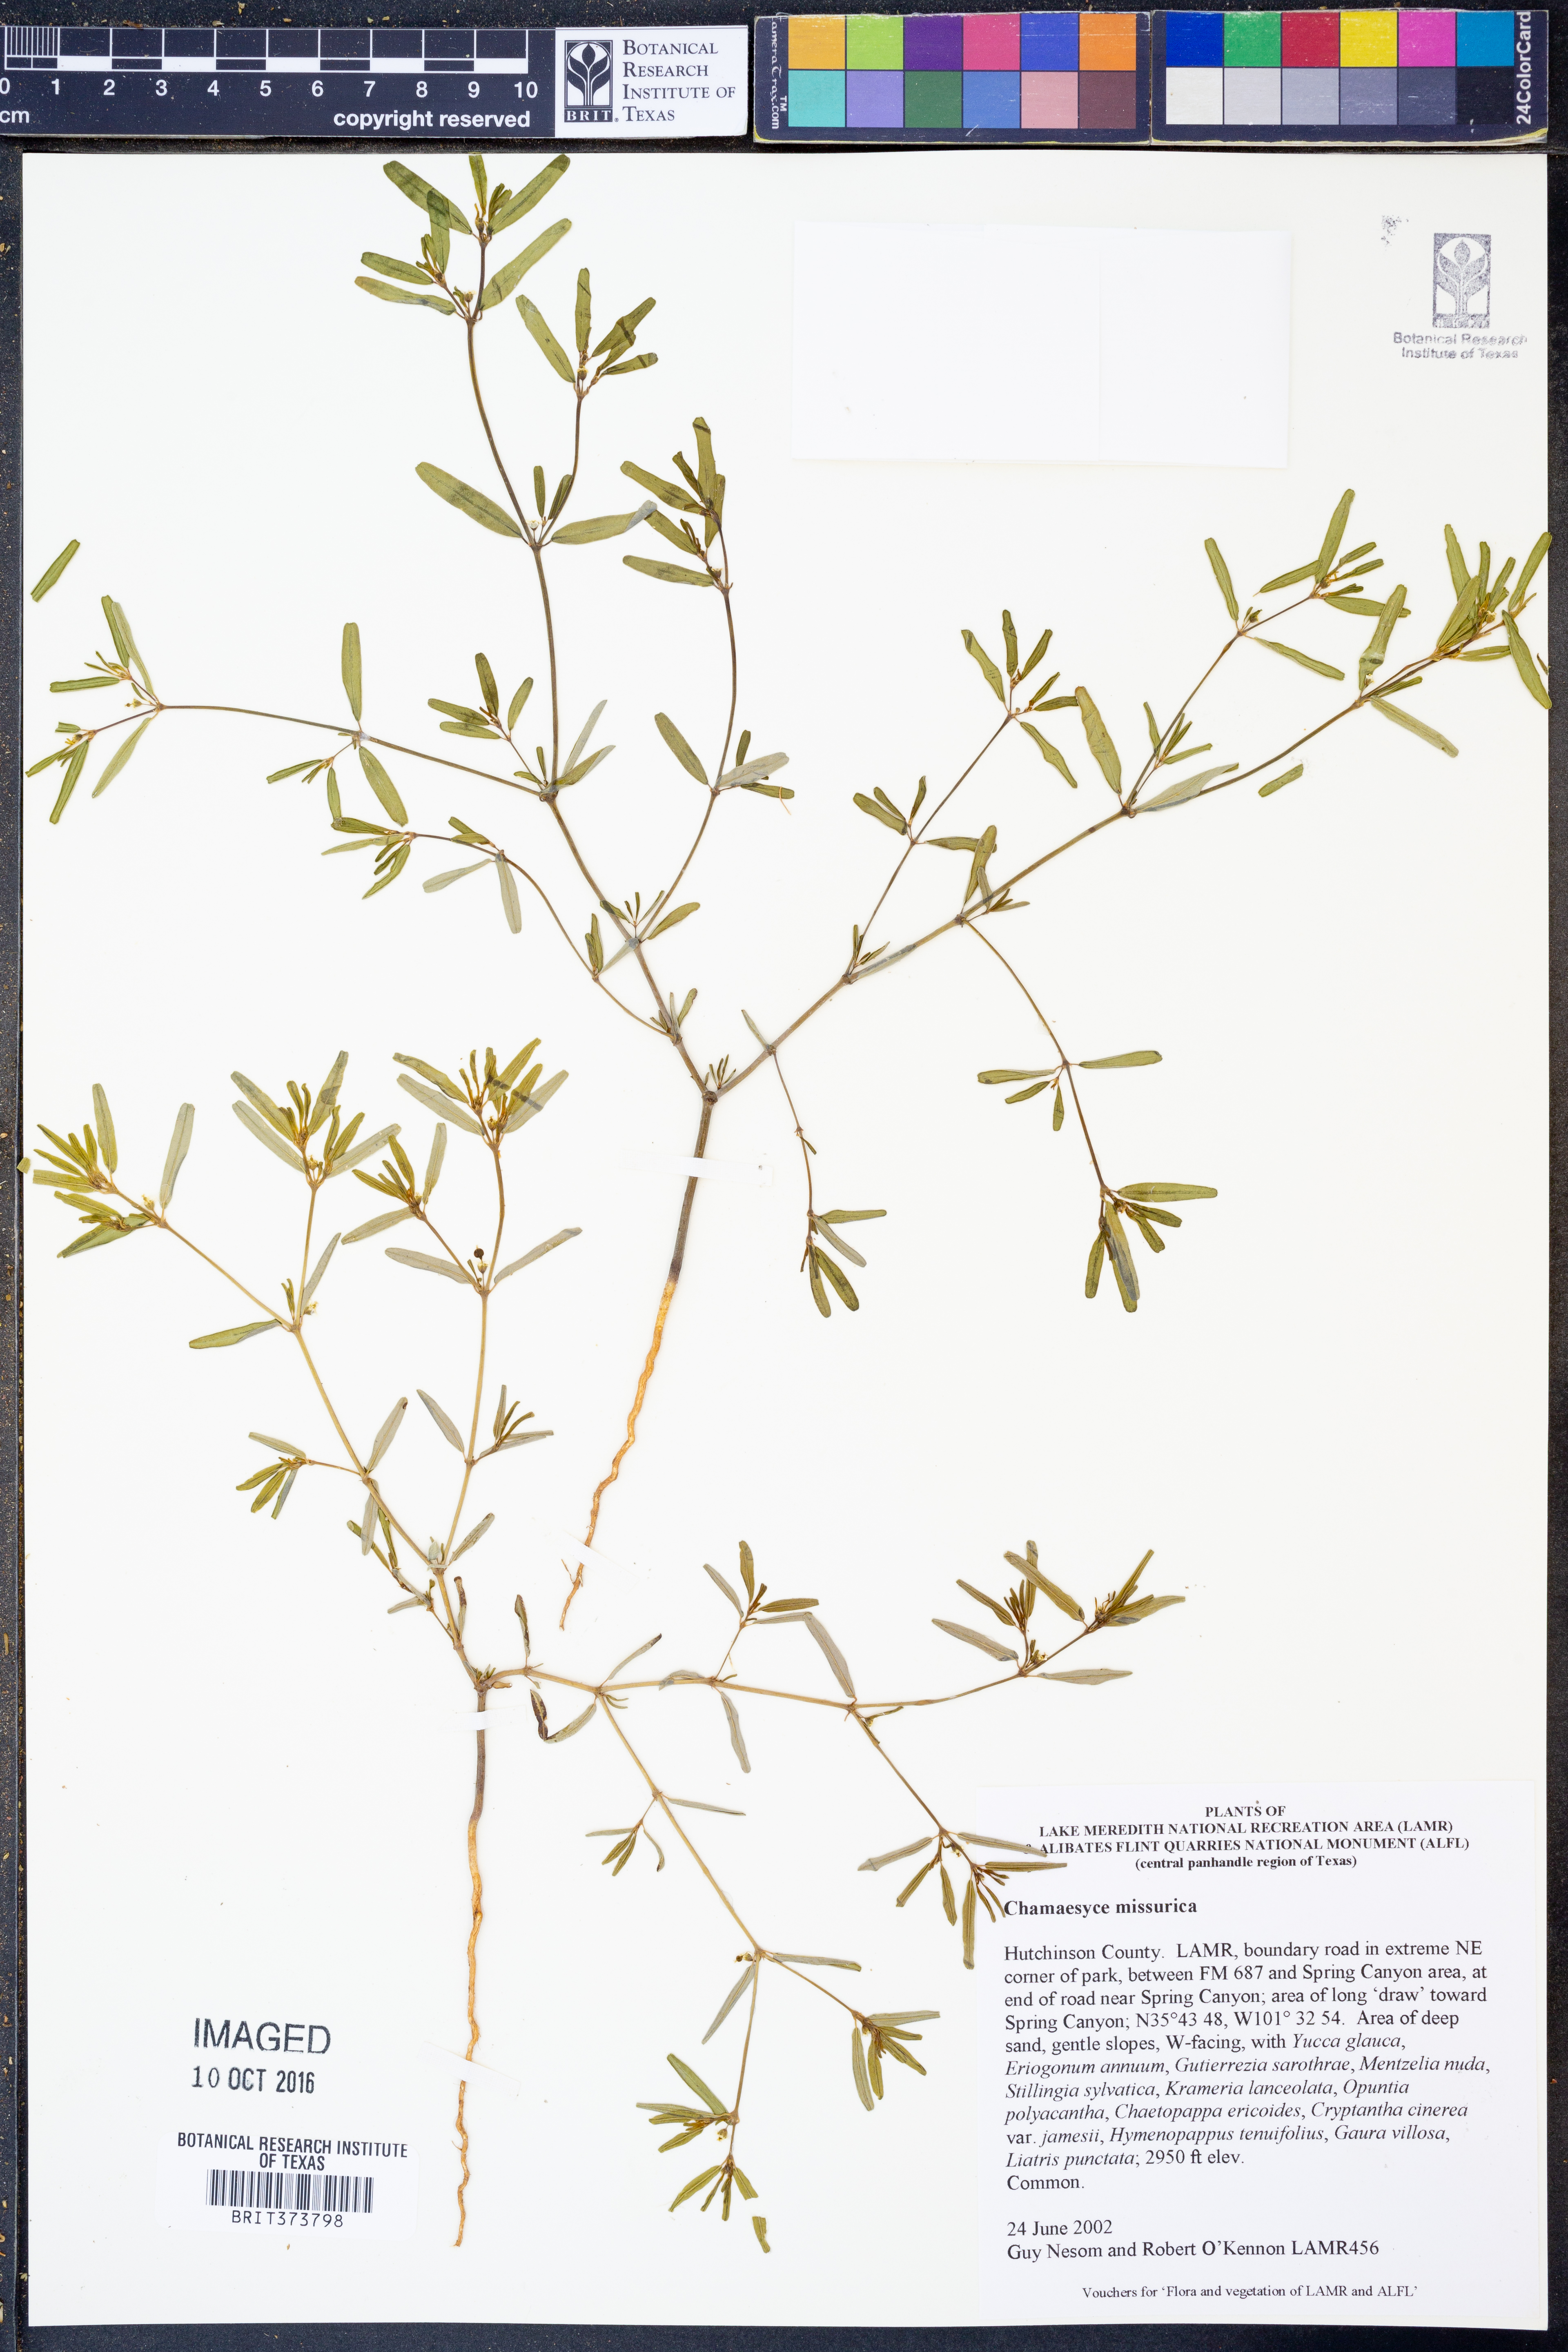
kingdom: Plantae
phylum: Tracheophyta
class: Magnoliopsida
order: Malpighiales
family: Euphorbiaceae
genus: Euphorbia
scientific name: Euphorbia missurica
